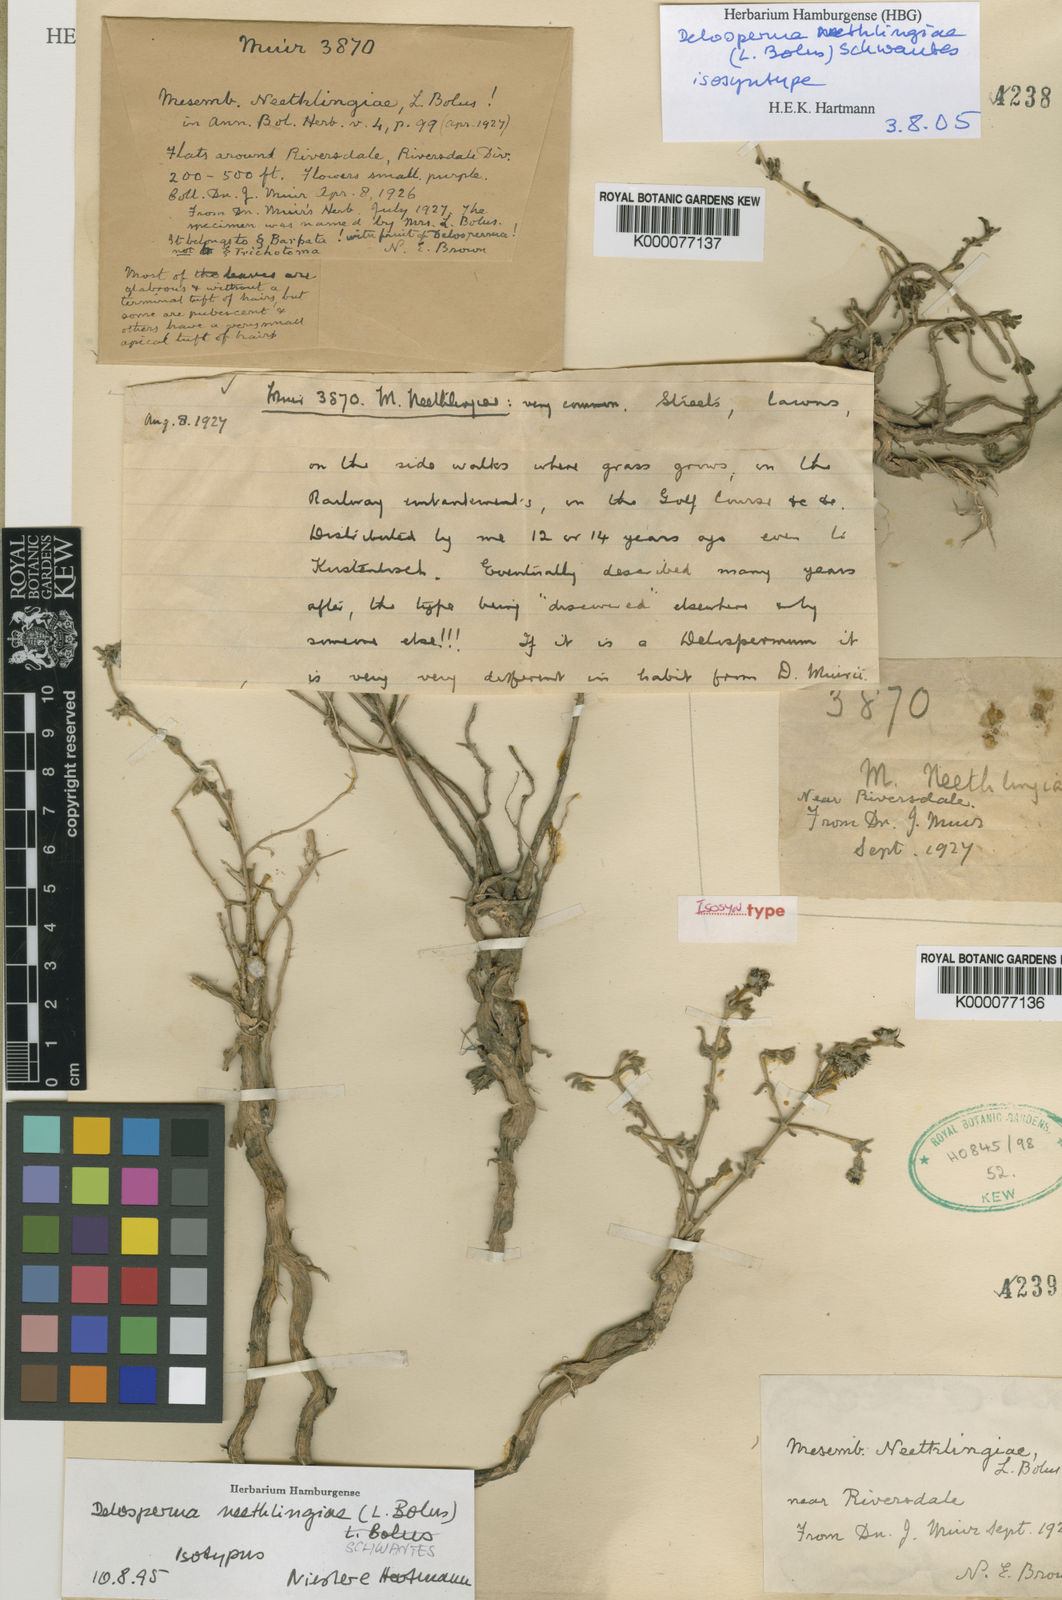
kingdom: Plantae
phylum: Tracheophyta
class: Magnoliopsida
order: Caryophyllales
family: Aizoaceae
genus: Delosperma
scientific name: Delosperma neethlingiae
